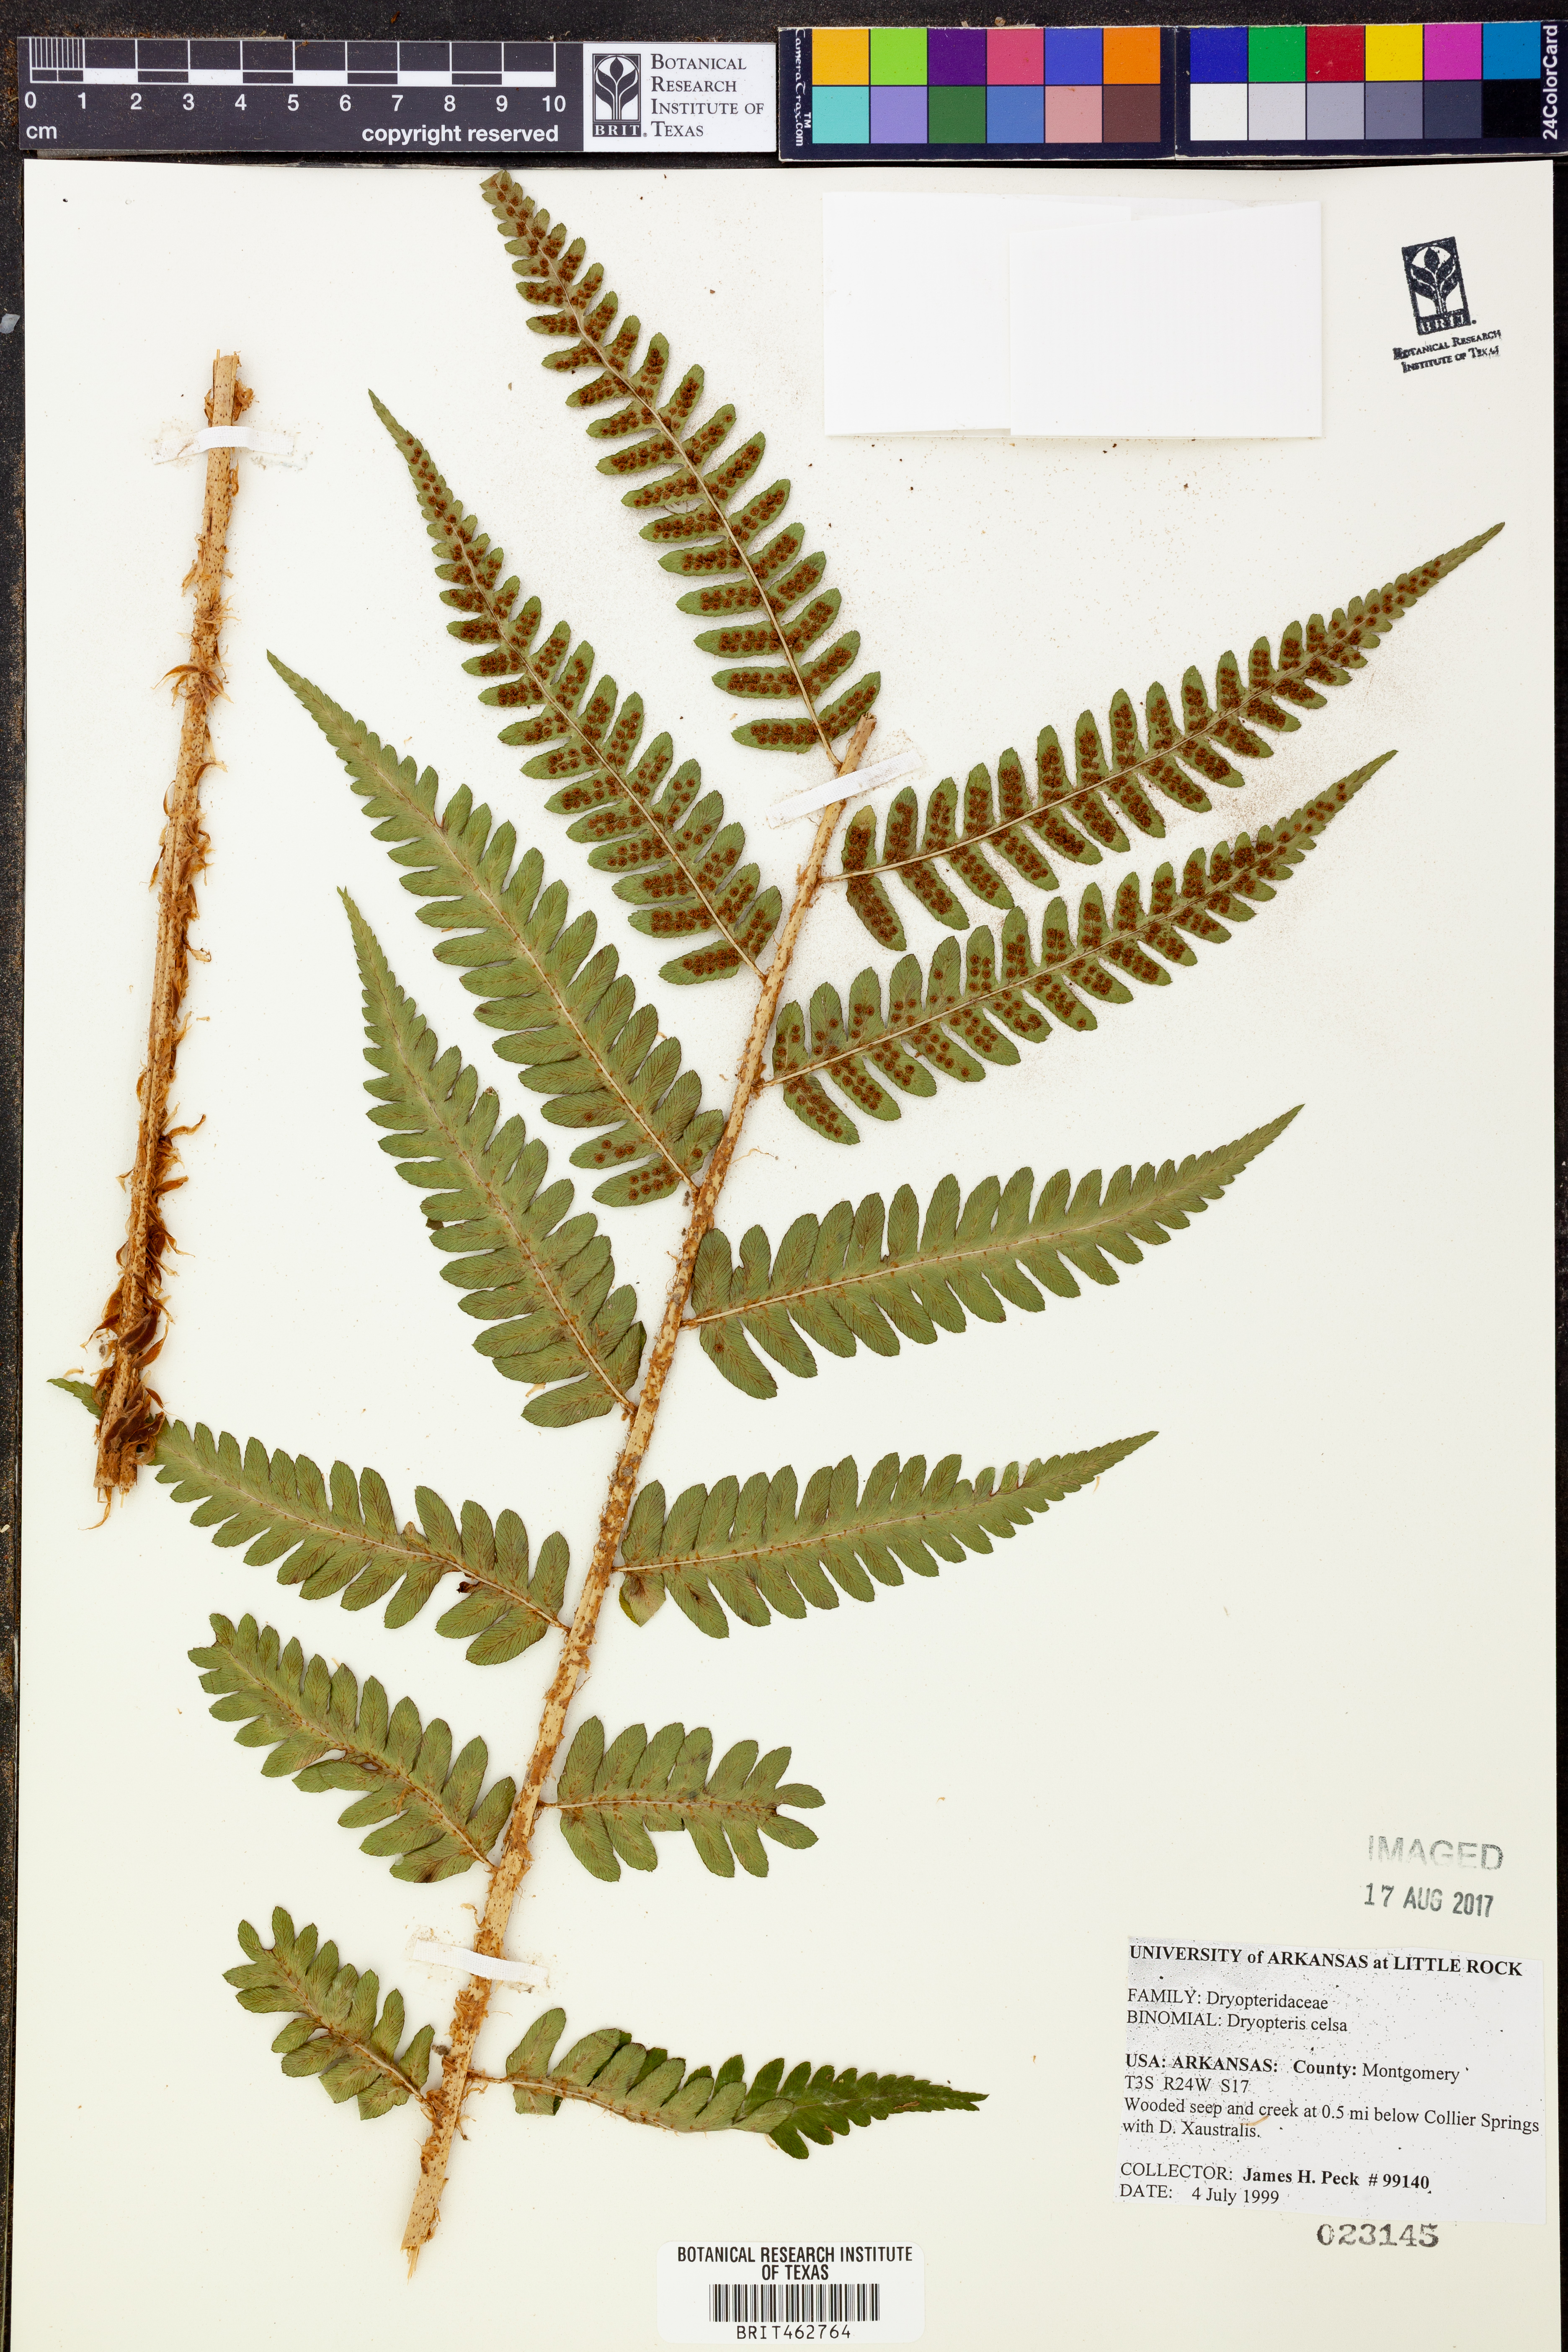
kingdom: Plantae
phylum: Tracheophyta
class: Polypodiopsida
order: Polypodiales
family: Dryopteridaceae
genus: Dryopteris
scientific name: Dryopteris celsa
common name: Log fern
